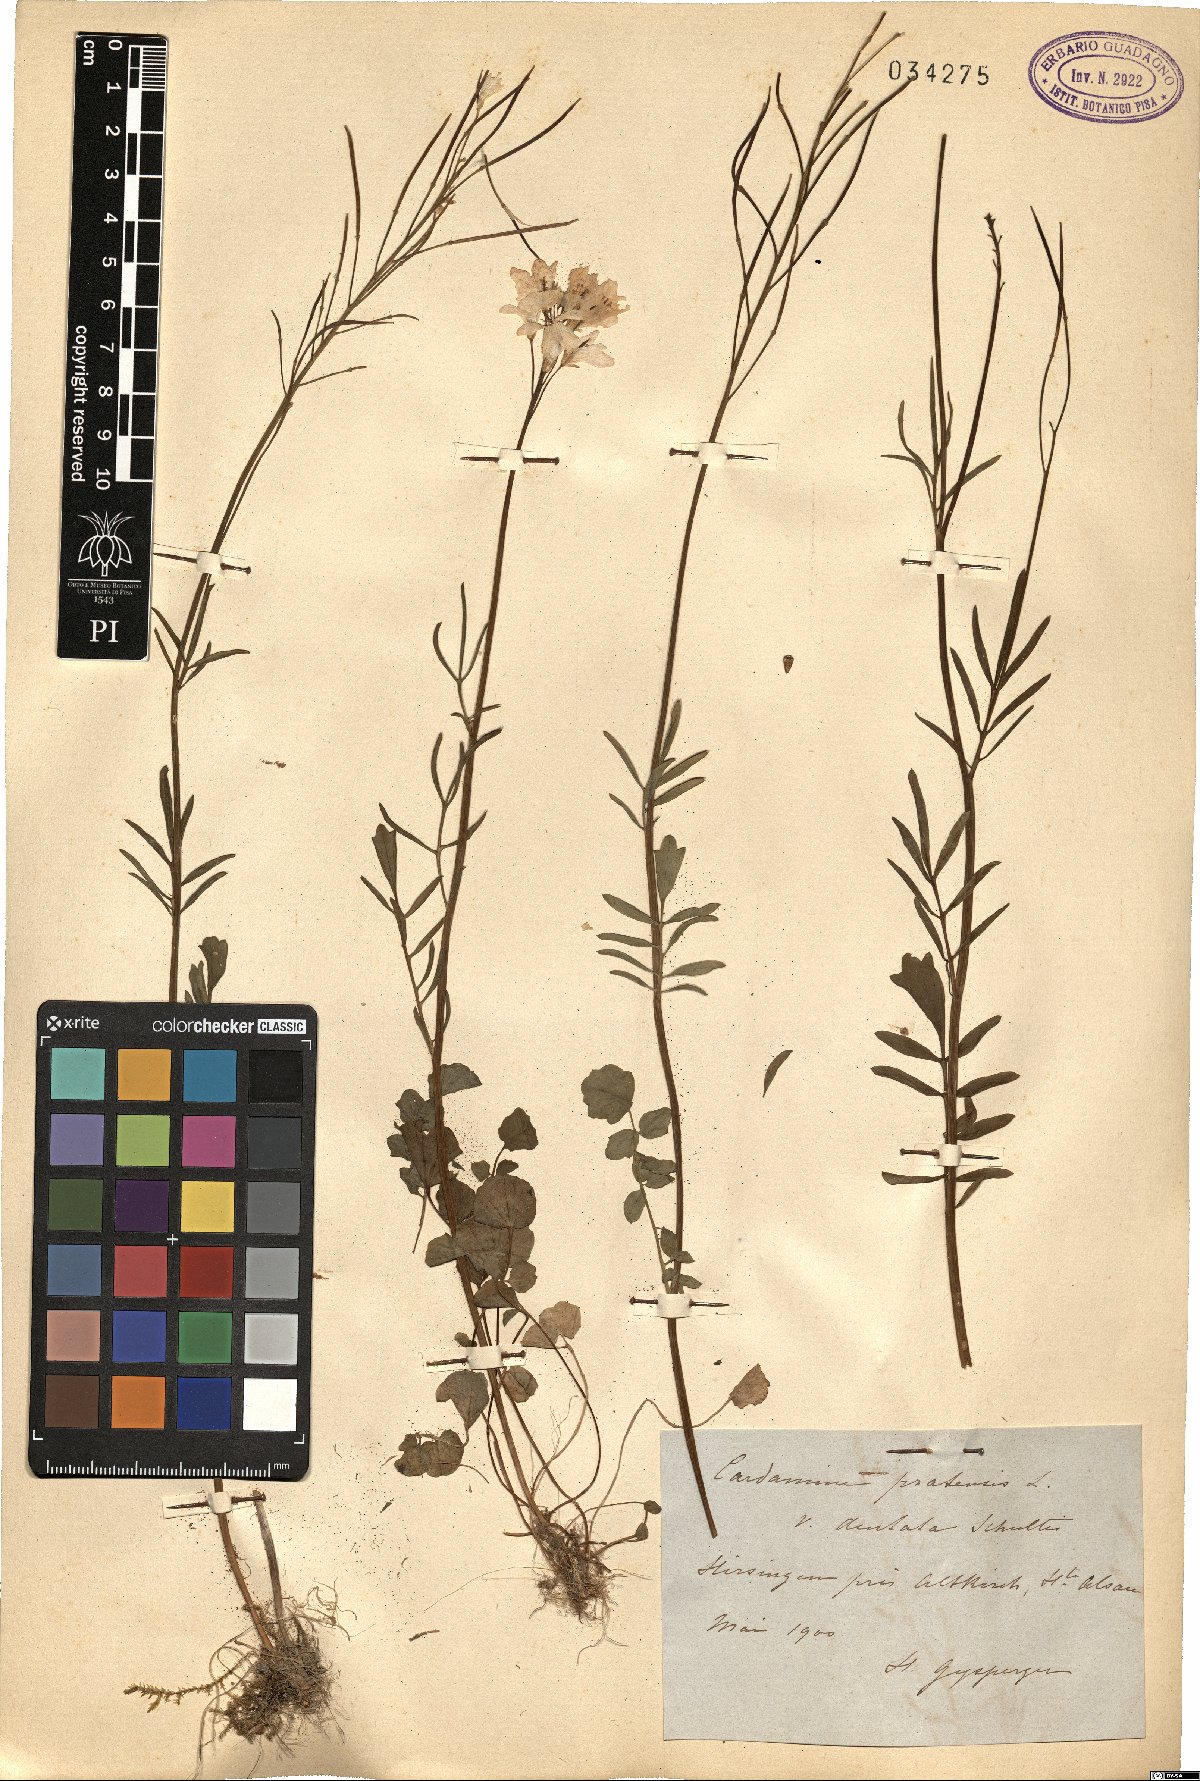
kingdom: Plantae
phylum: Tracheophyta
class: Magnoliopsida
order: Brassicales
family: Brassicaceae
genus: Cardamine
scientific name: Cardamine dentata
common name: Toothed bittercress
